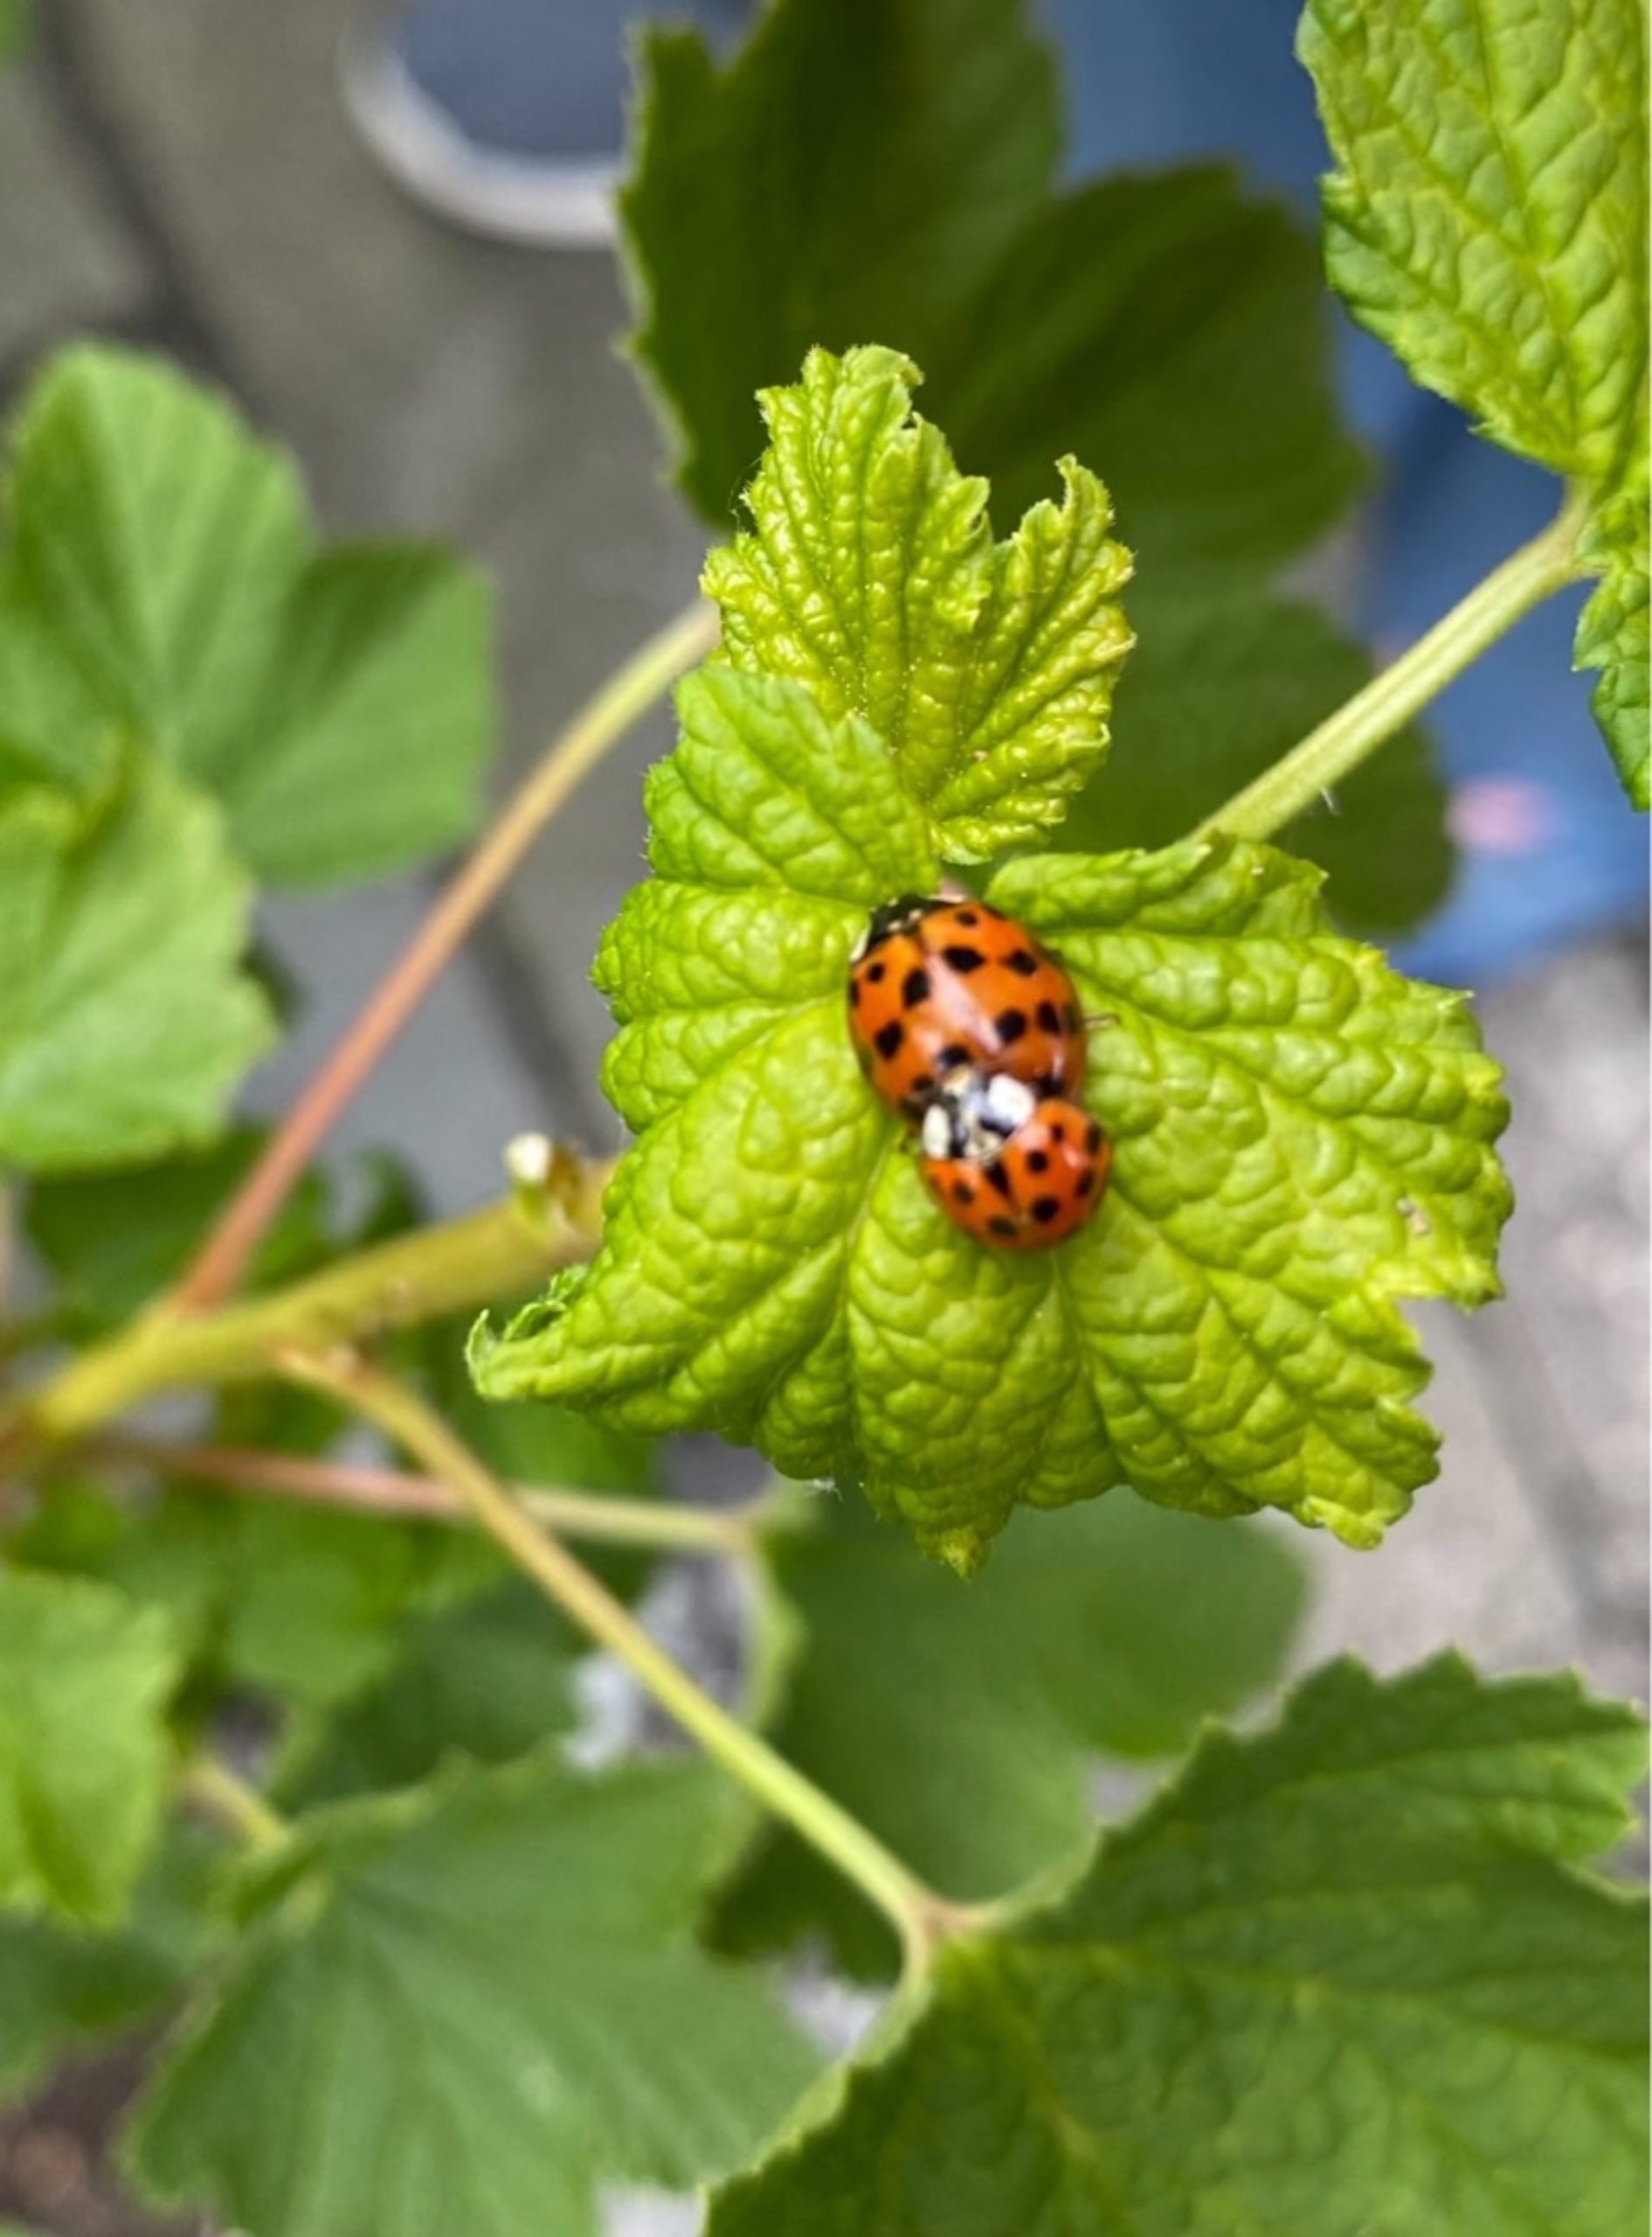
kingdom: Animalia
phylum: Arthropoda
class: Insecta
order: Coleoptera
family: Coccinellidae
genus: Harmonia
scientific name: Harmonia axyridis
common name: Harlekinmariehøne
